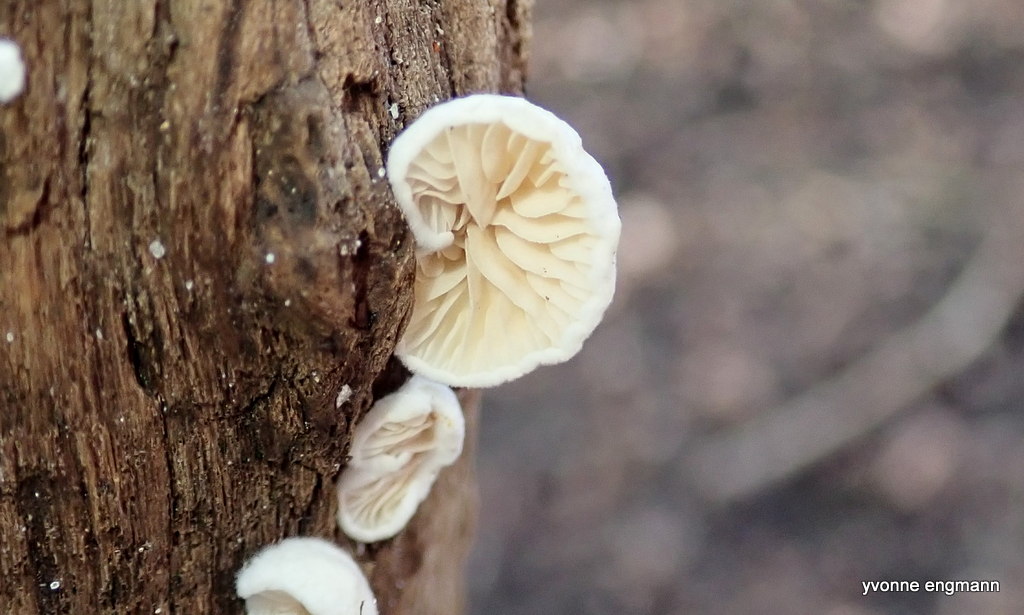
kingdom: Fungi
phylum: Basidiomycota
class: Agaricomycetes
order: Agaricales
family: Crepidotaceae
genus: Crepidotus
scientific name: Crepidotus
